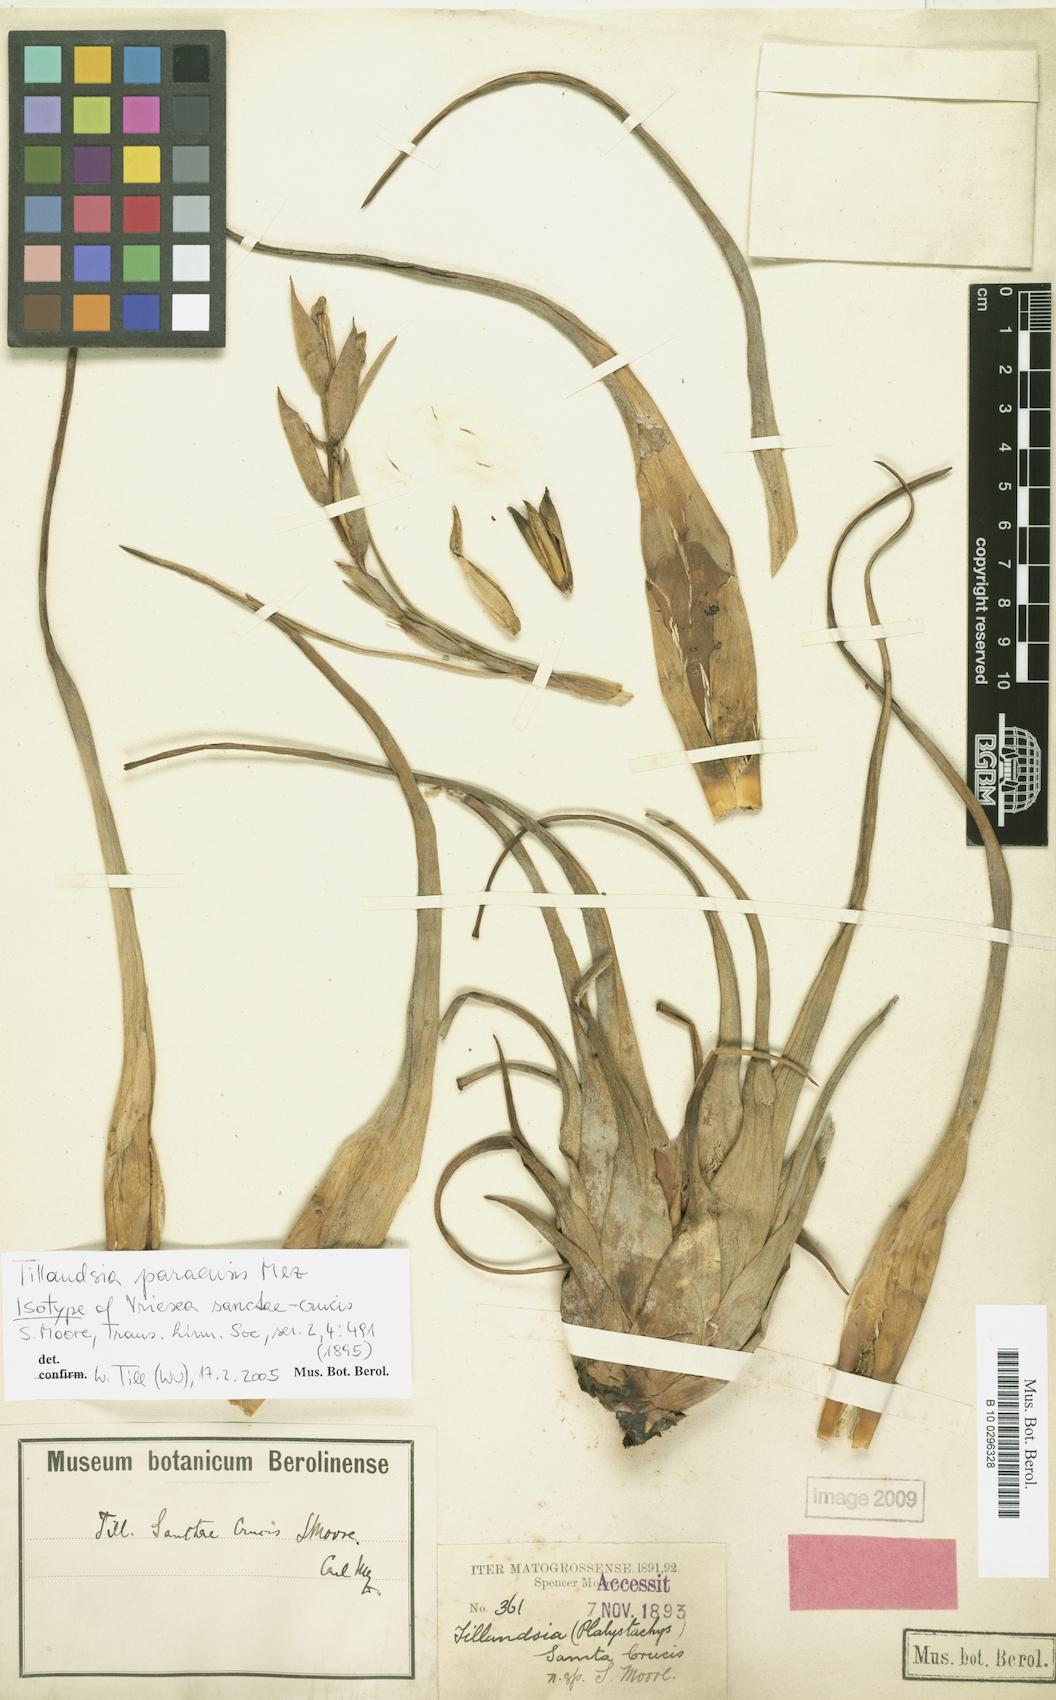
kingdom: Plantae
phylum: Tracheophyta
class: Liliopsida
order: Poales
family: Bromeliaceae
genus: Tillandsia
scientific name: Tillandsia paraensis
